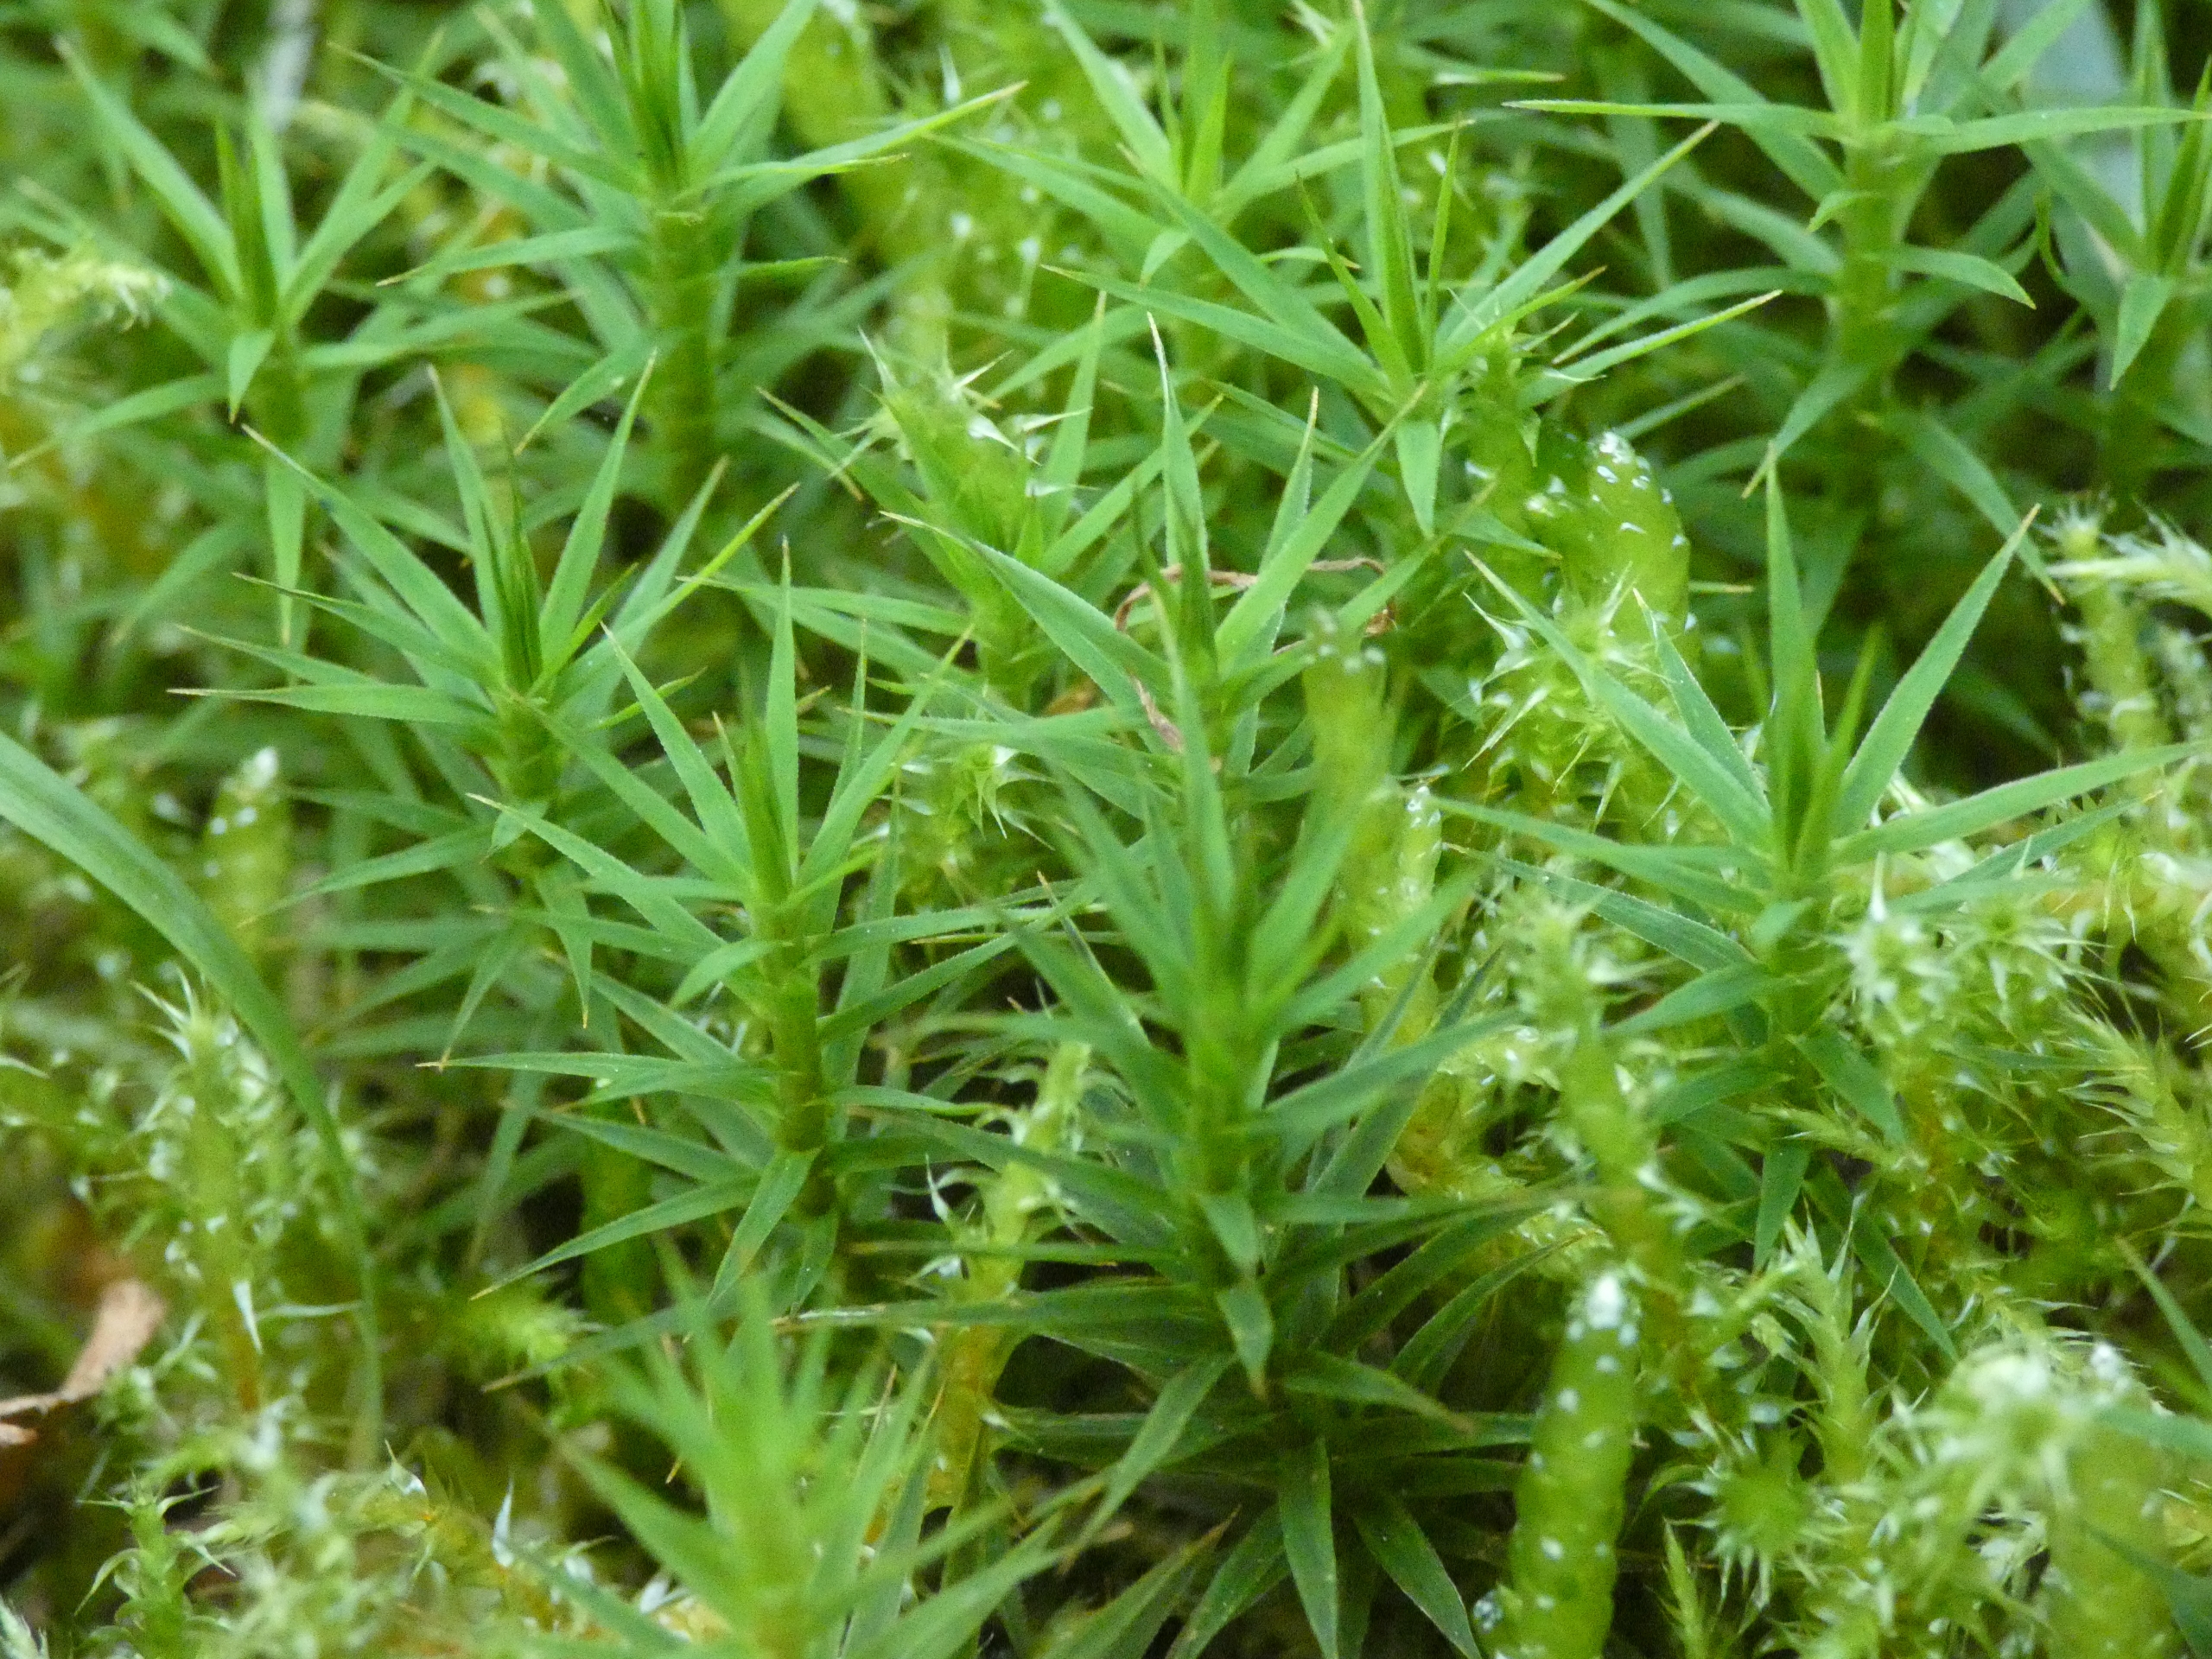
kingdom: Plantae
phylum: Bryophyta
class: Polytrichopsida
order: Polytrichales
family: Polytrichaceae
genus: Polytrichum
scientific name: Polytrichum formosum
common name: Skov-jomfruhår
